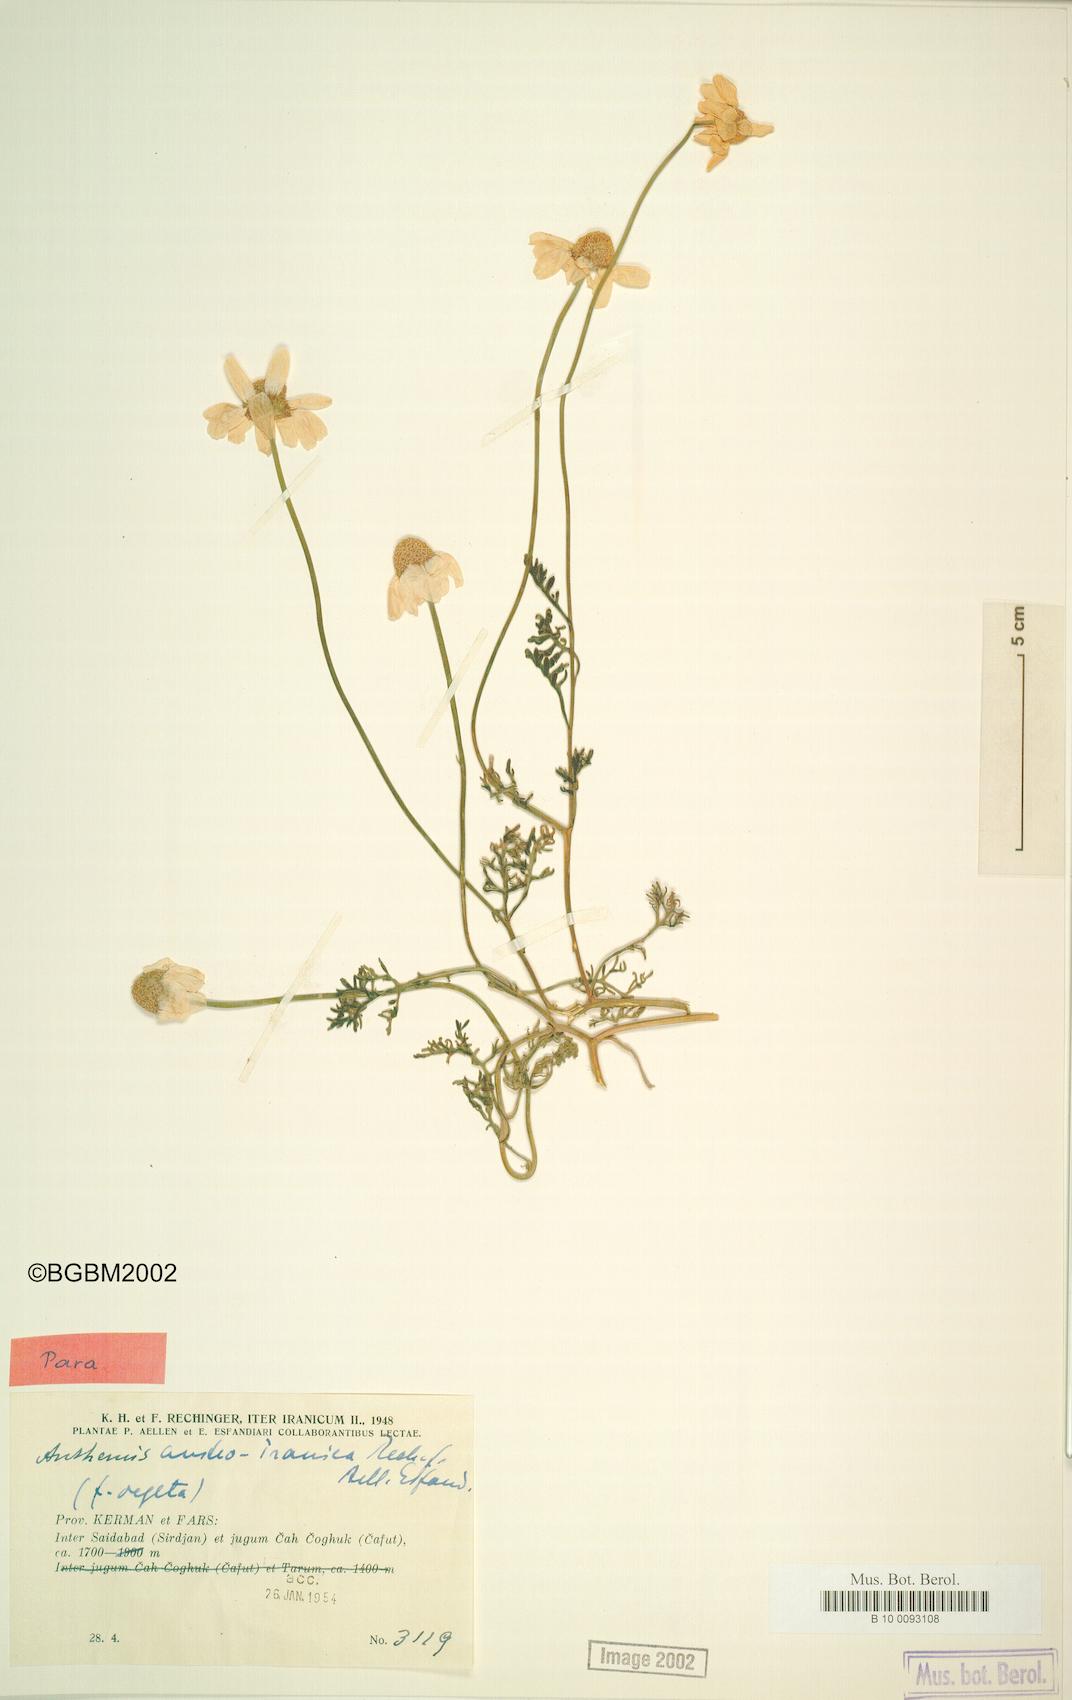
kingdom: Plantae
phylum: Tracheophyta
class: Magnoliopsida
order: Asterales
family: Asteraceae
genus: Anthemis
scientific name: Anthemis austroiranica
